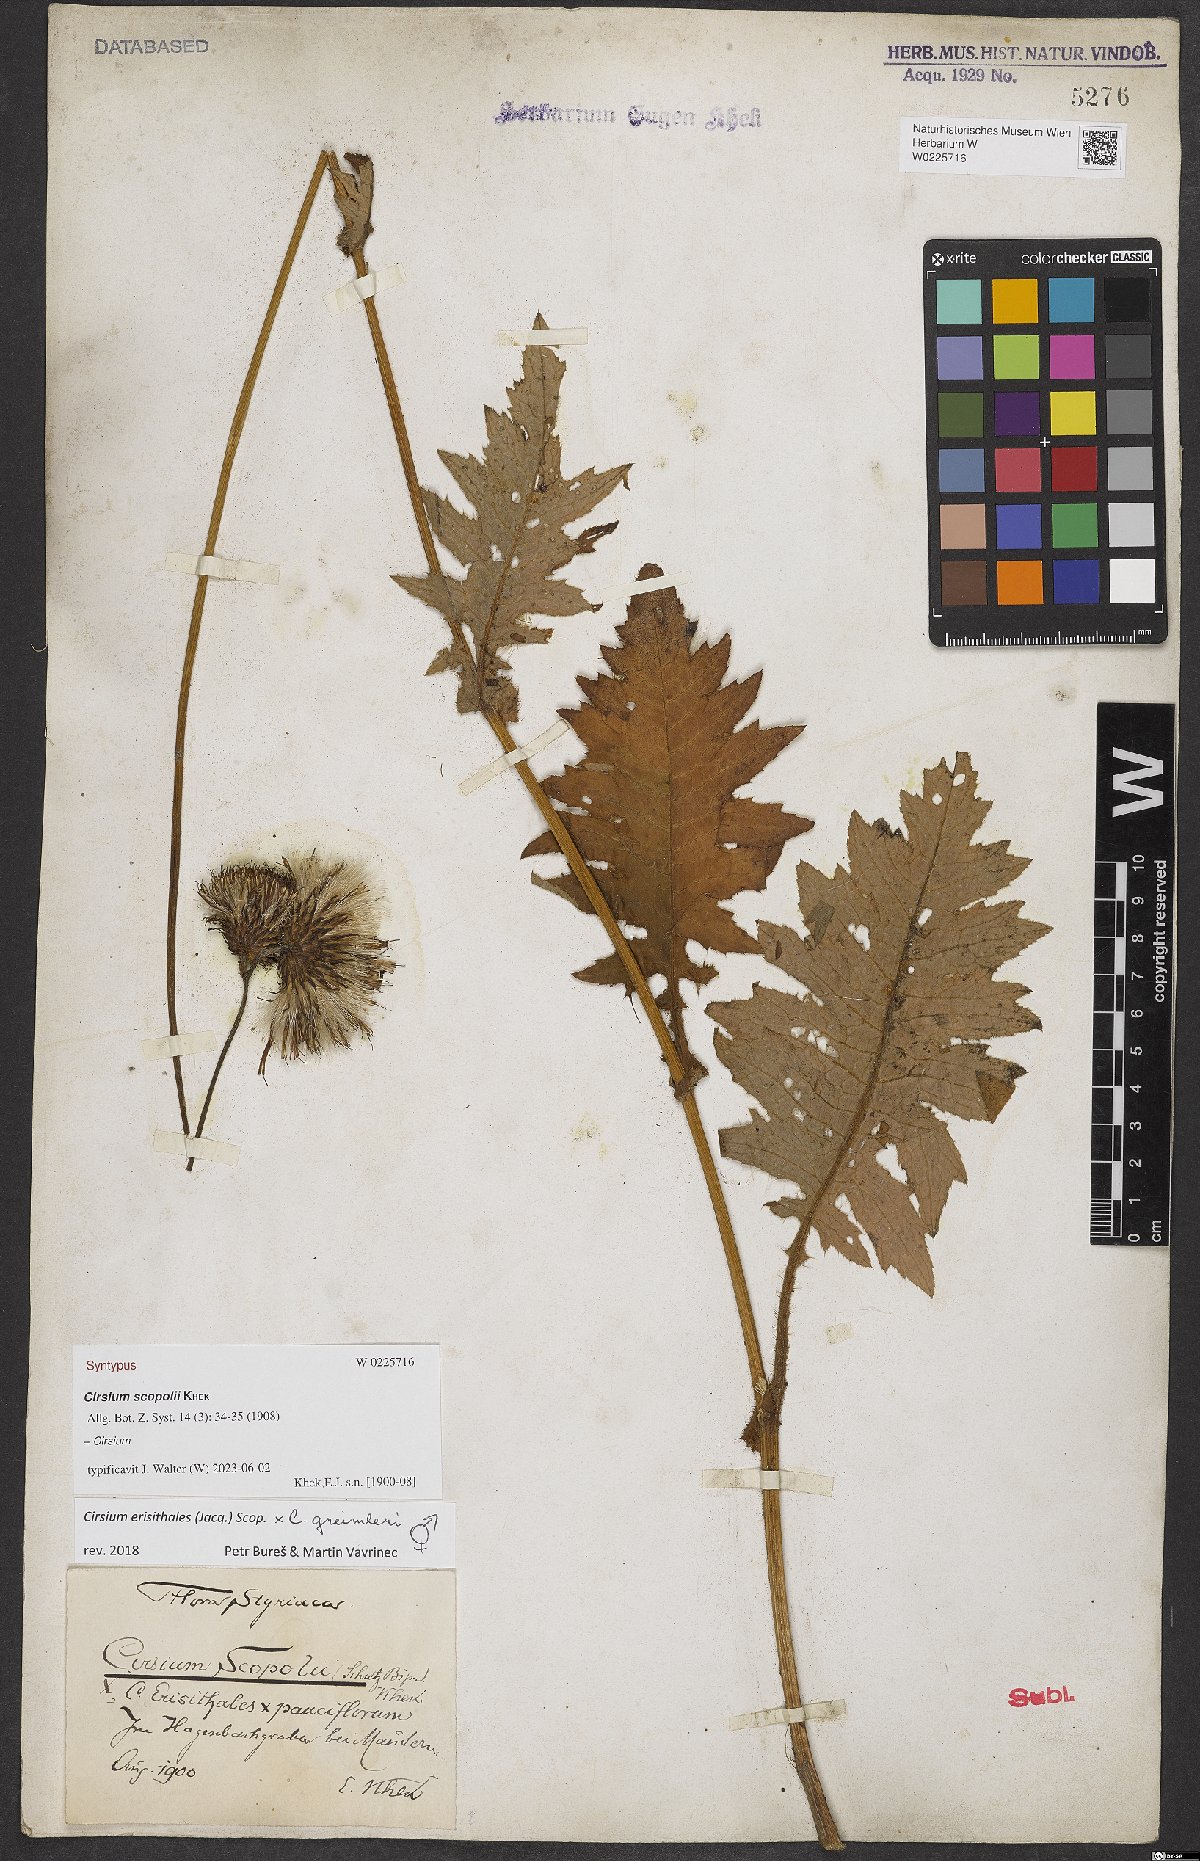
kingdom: Plantae
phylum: Tracheophyta
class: Magnoliopsida
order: Asterales
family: Asteraceae
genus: Cirsium
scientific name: Cirsium scopolii
